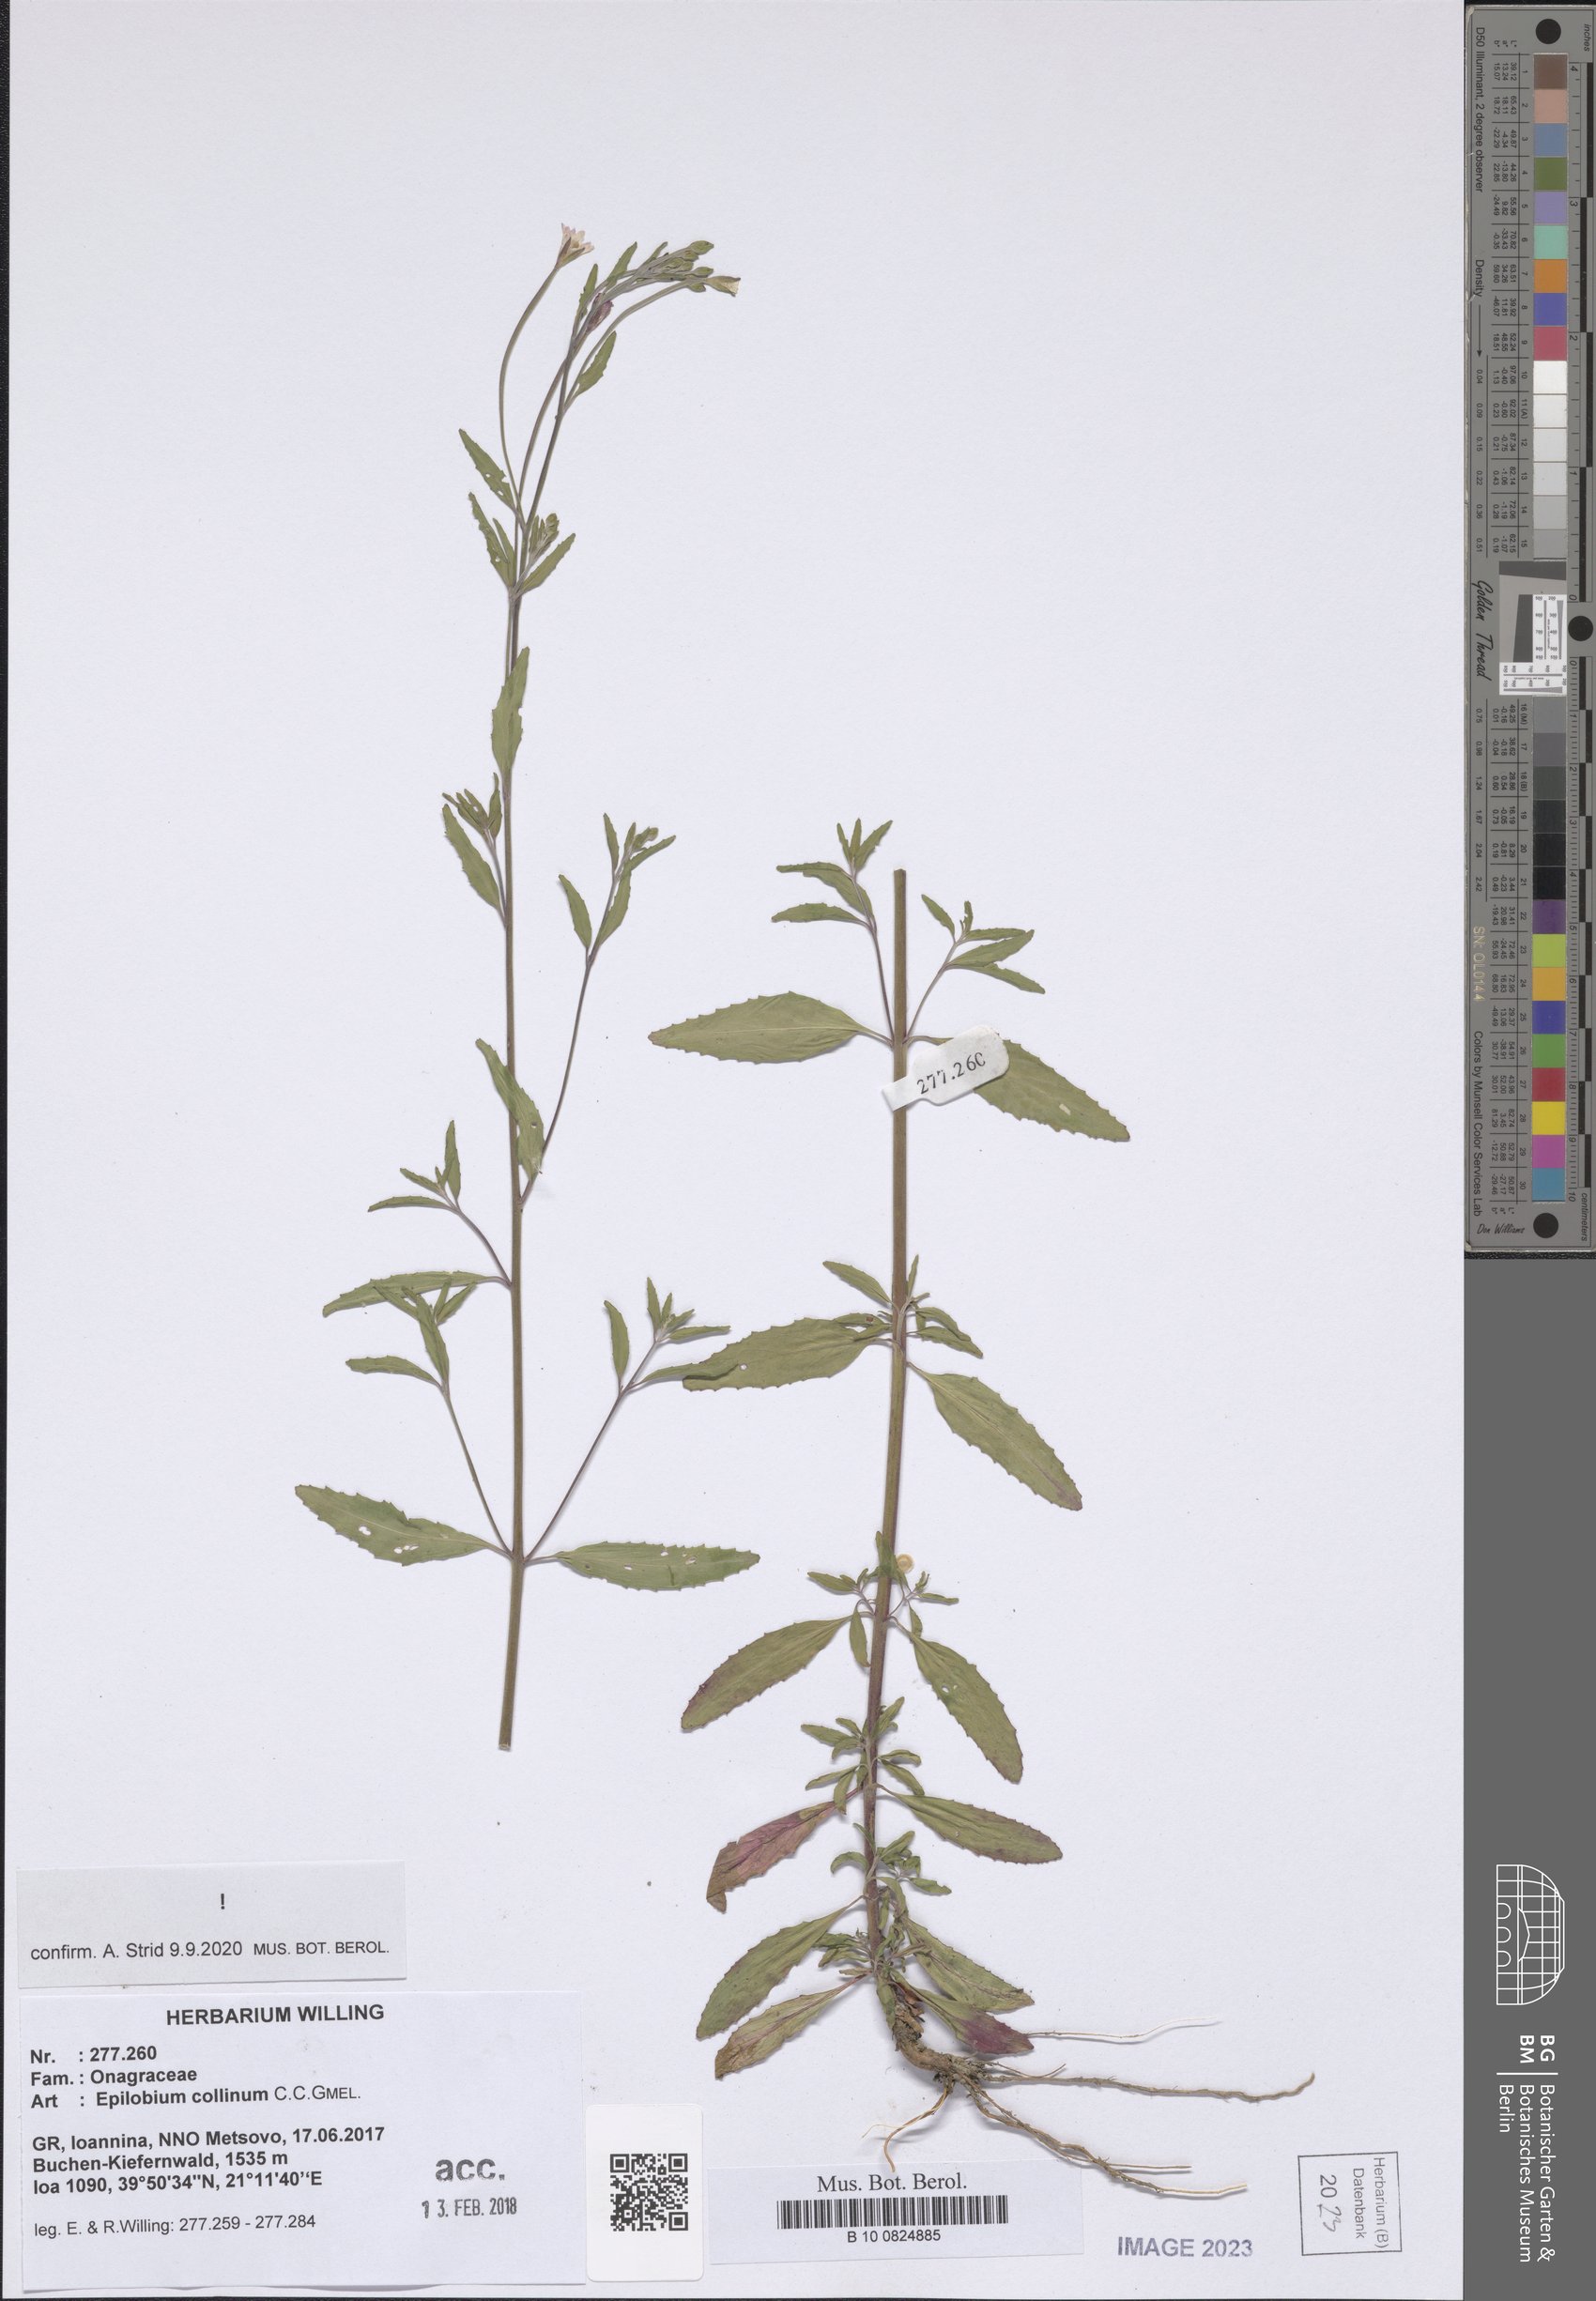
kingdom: Plantae
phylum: Tracheophyta
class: Magnoliopsida
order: Myrtales
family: Onagraceae
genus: Epilobium
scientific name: Epilobium collinum
